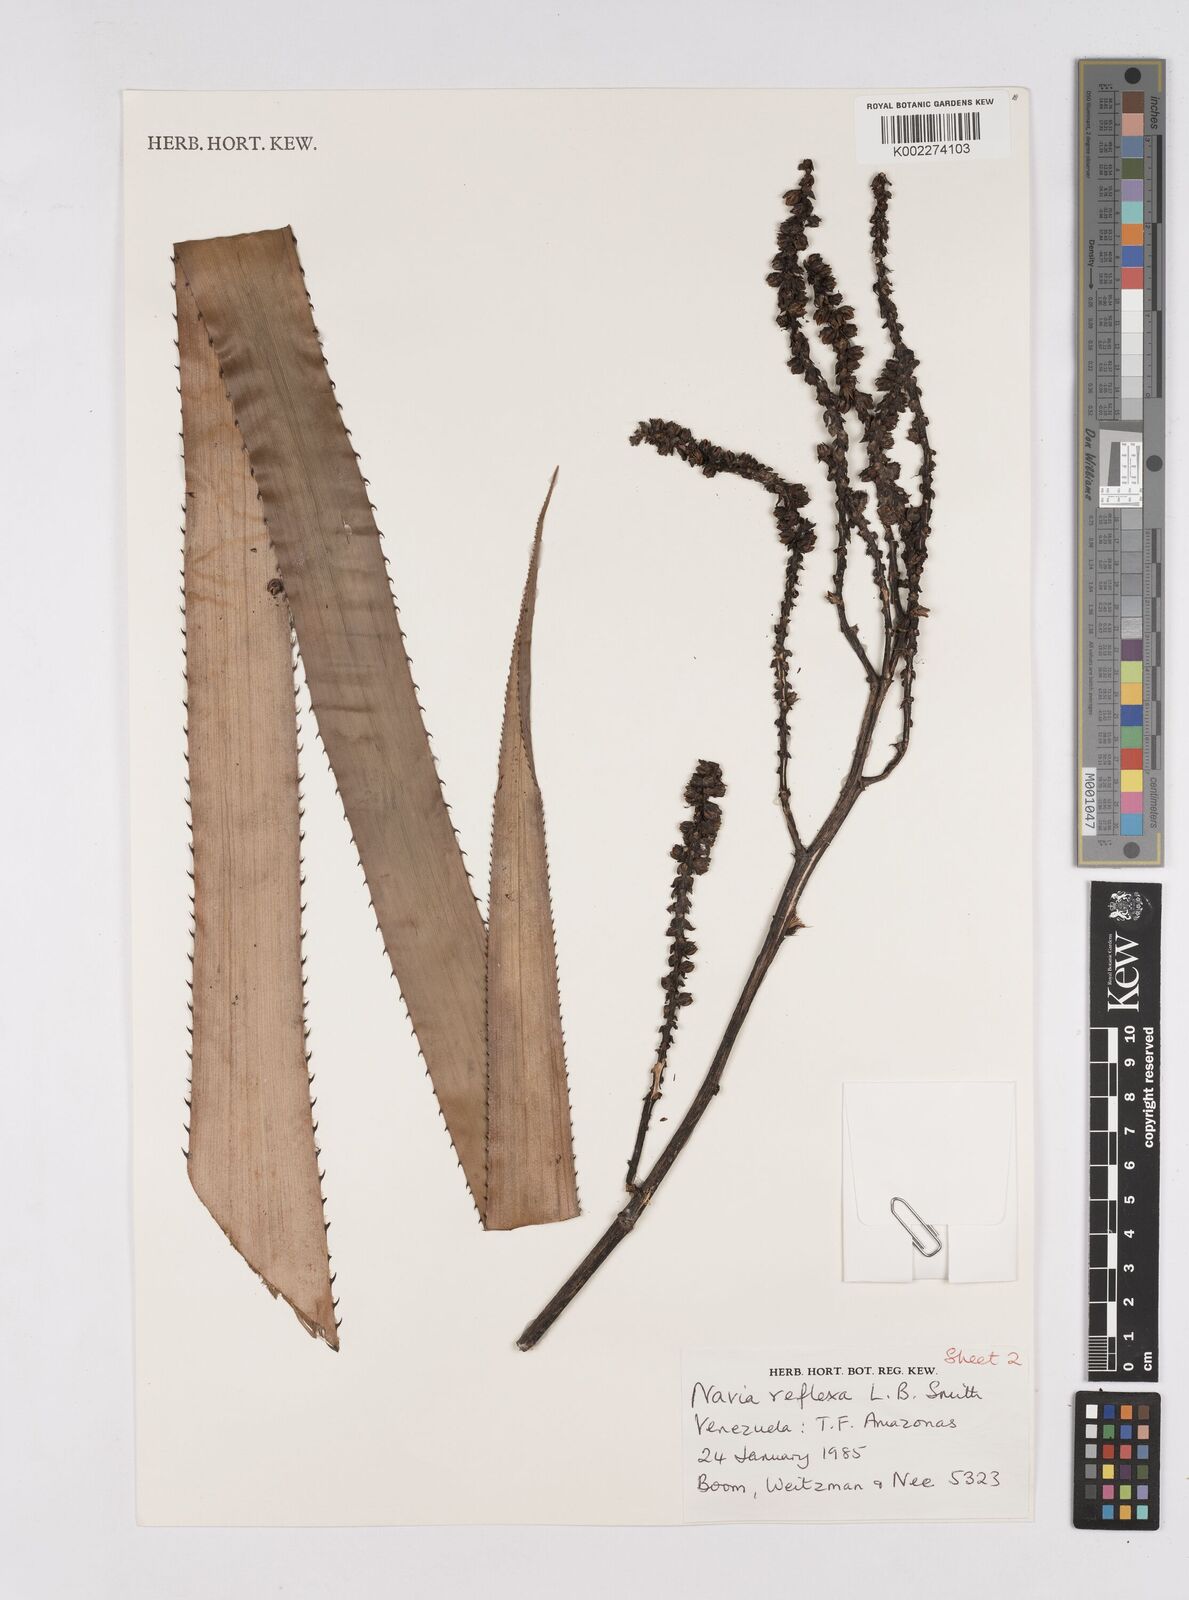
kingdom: Plantae
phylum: Tracheophyta
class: Liliopsida
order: Poales
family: Bromeliaceae
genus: Navia
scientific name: Navia reflexa
